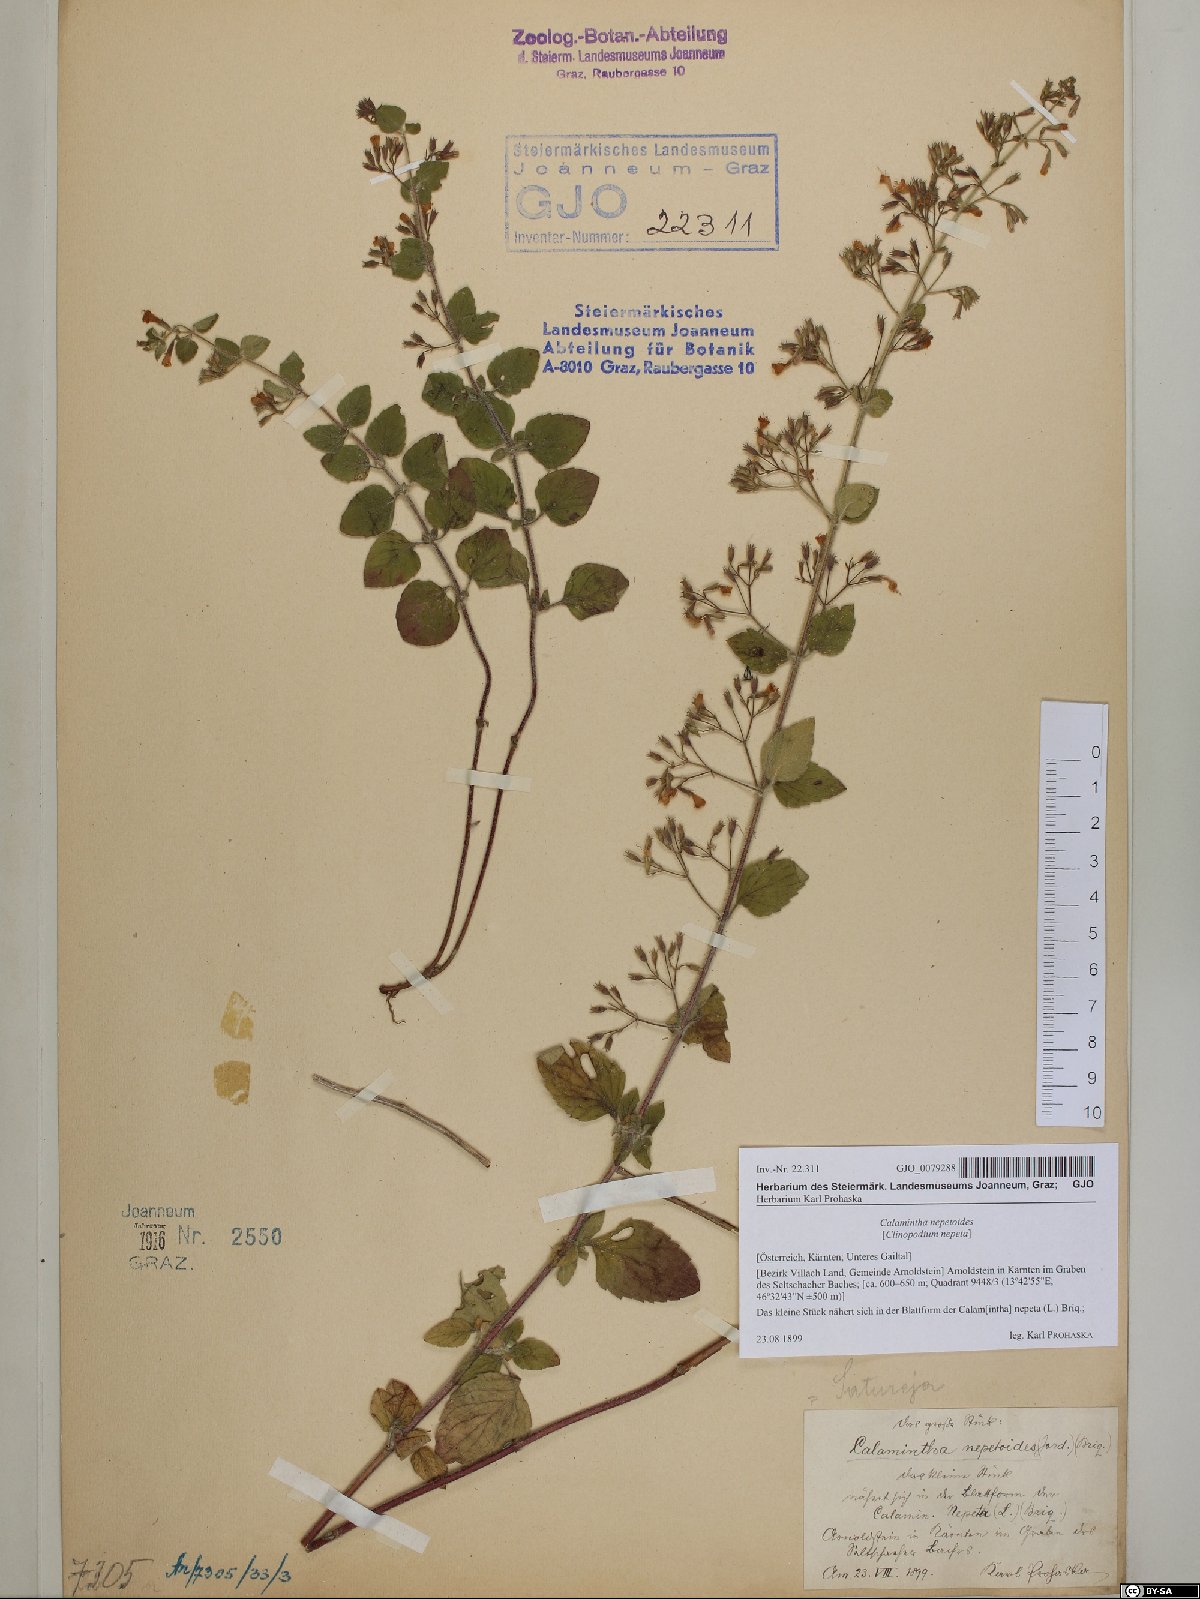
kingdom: Plantae
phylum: Tracheophyta
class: Magnoliopsida
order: Lamiales
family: Lamiaceae
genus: Clinopodium
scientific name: Clinopodium nepeta
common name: Lesser calamint
